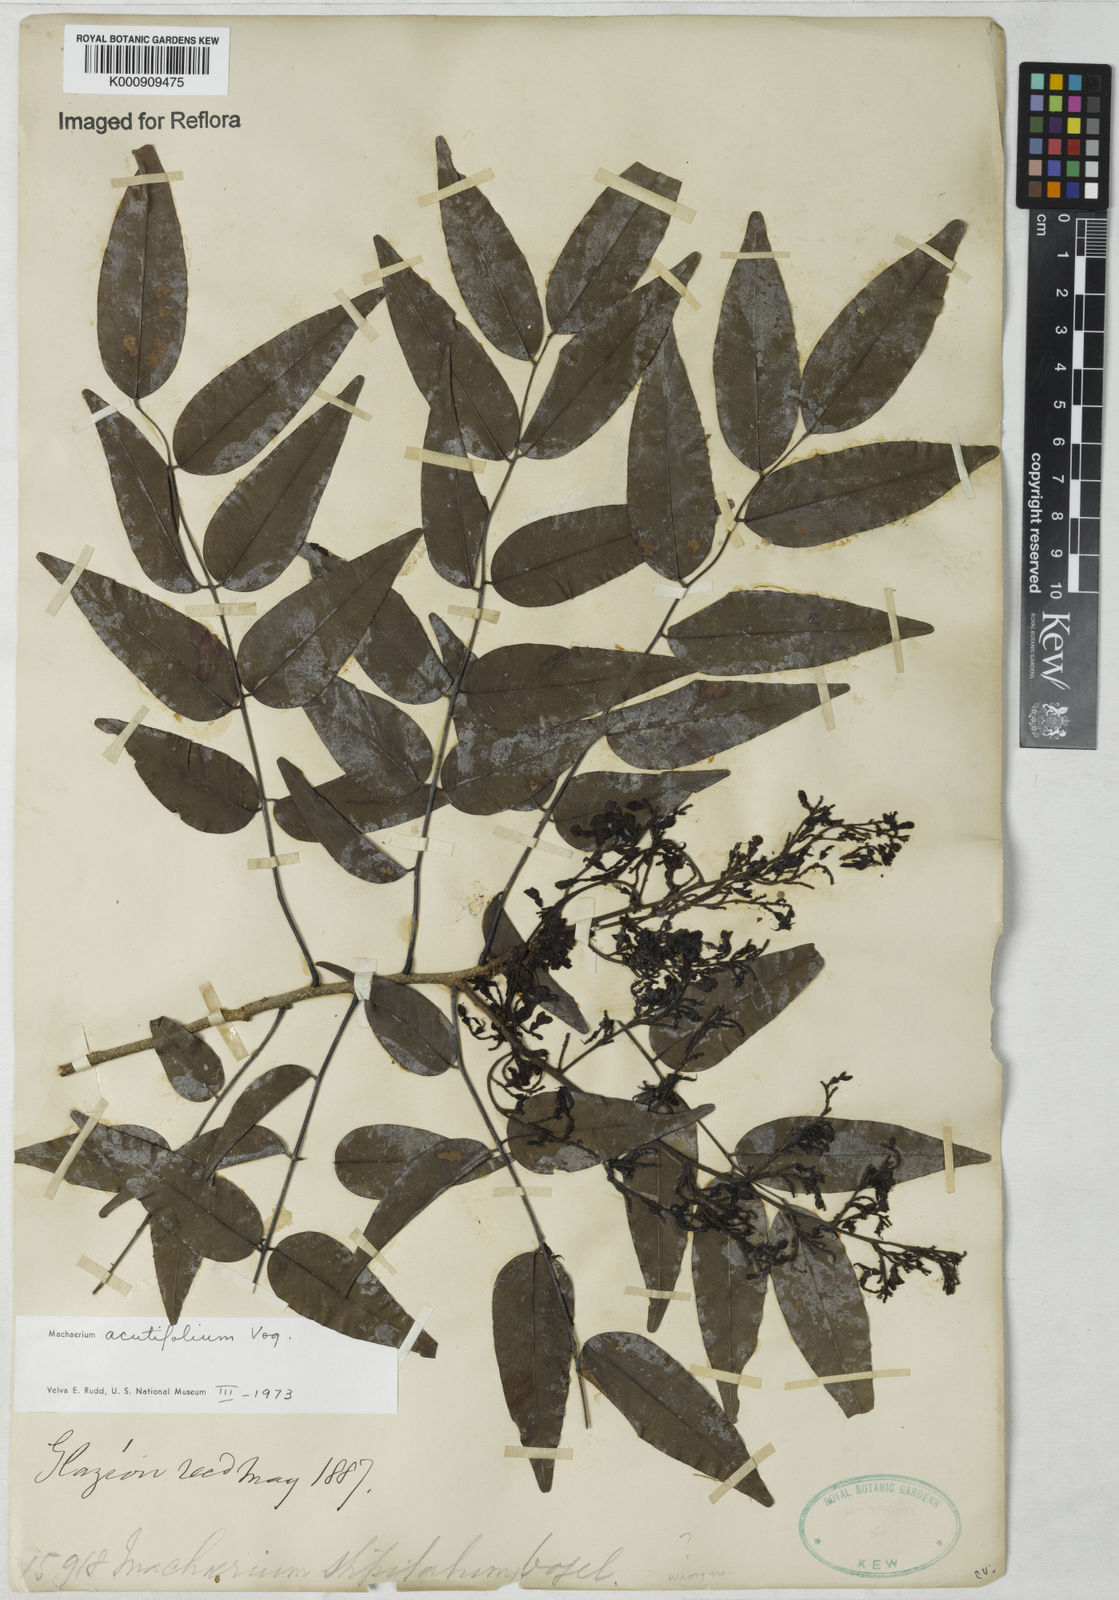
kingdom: Plantae
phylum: Tracheophyta
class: Magnoliopsida
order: Fabales
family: Fabaceae
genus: Machaerium
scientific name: Machaerium acutifolium
